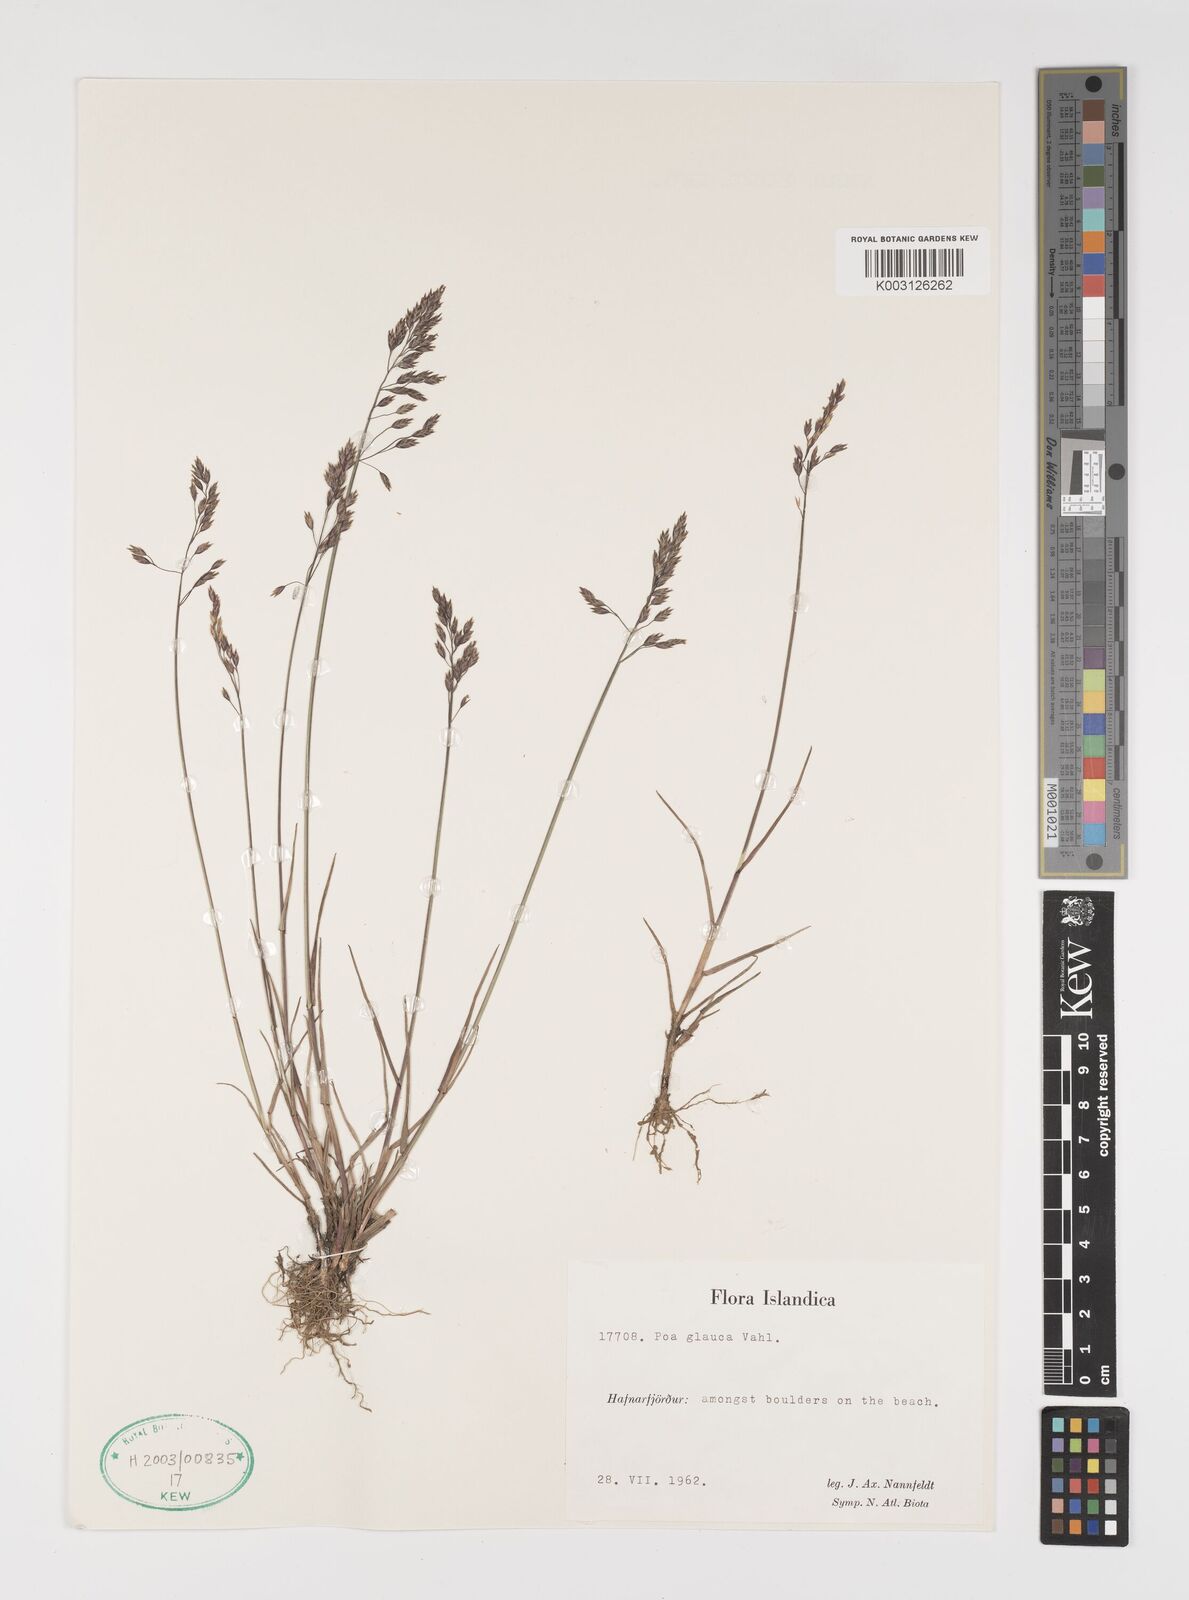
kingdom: Plantae
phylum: Tracheophyta
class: Liliopsida
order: Poales
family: Poaceae
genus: Poa
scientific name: Poa glauca
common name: Glaucous bluegrass
